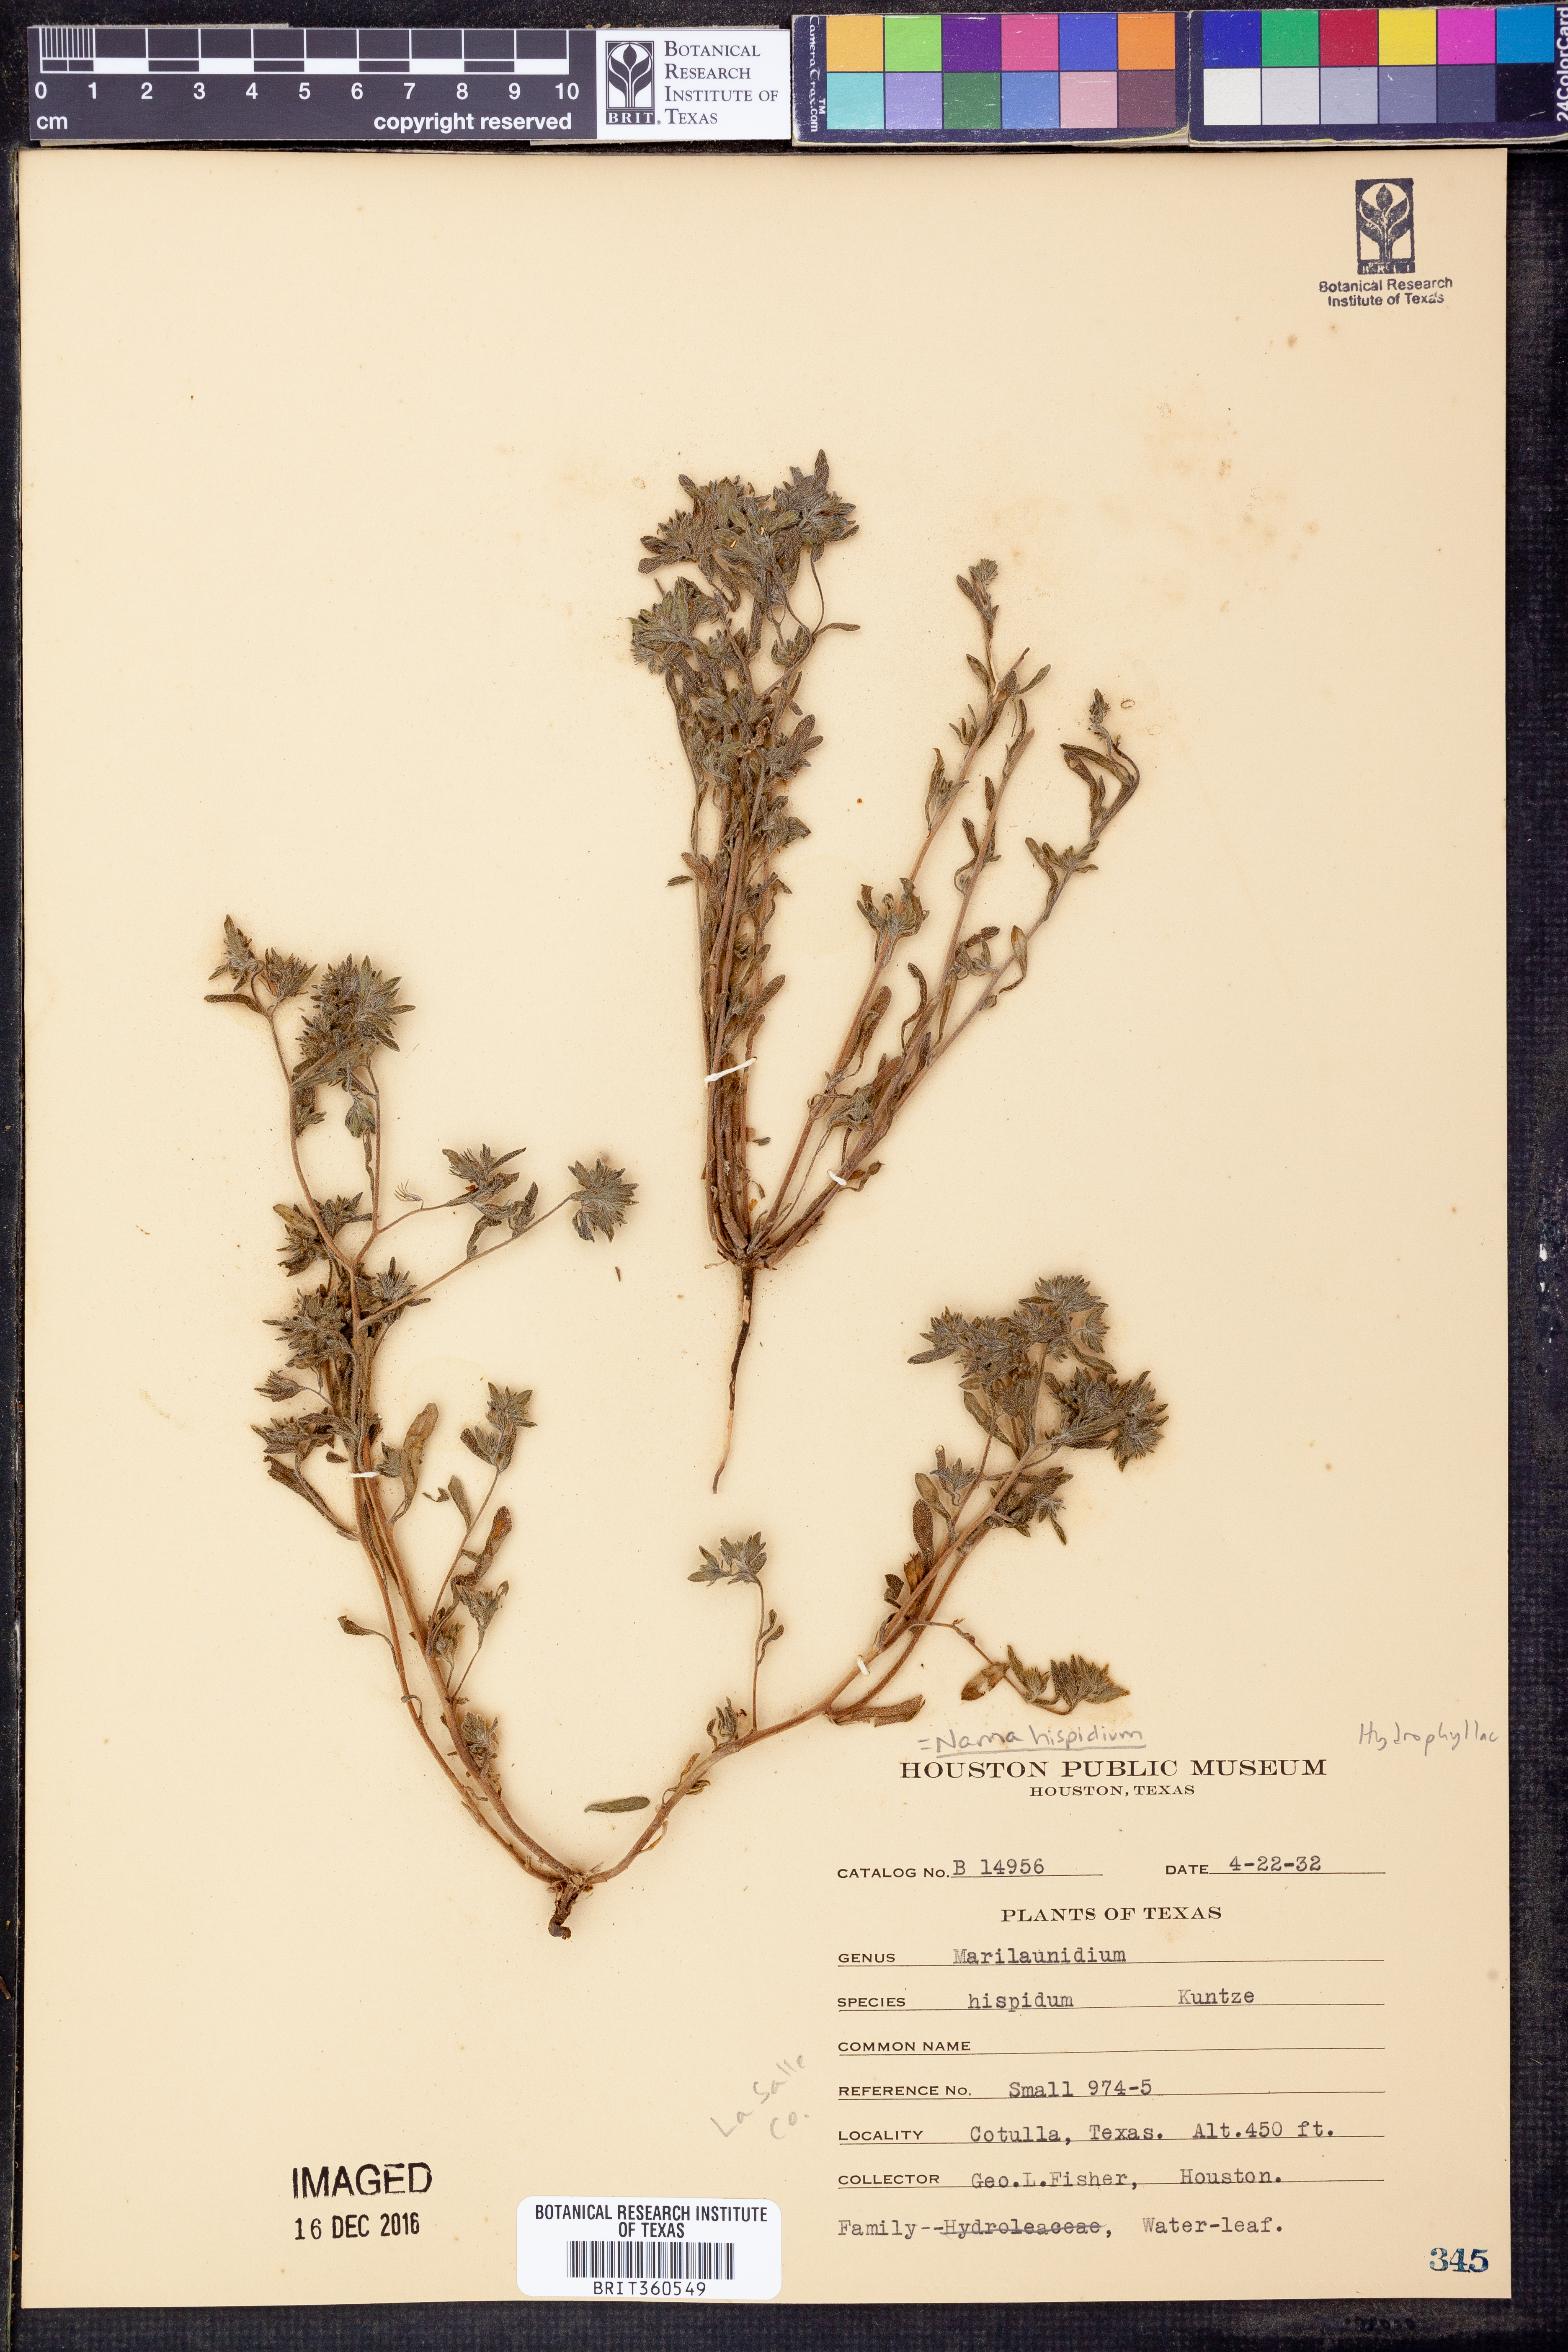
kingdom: Plantae
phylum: Tracheophyta
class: Magnoliopsida
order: Boraginales
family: Namaceae
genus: Nama
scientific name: Nama hispida
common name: Bristly nama
